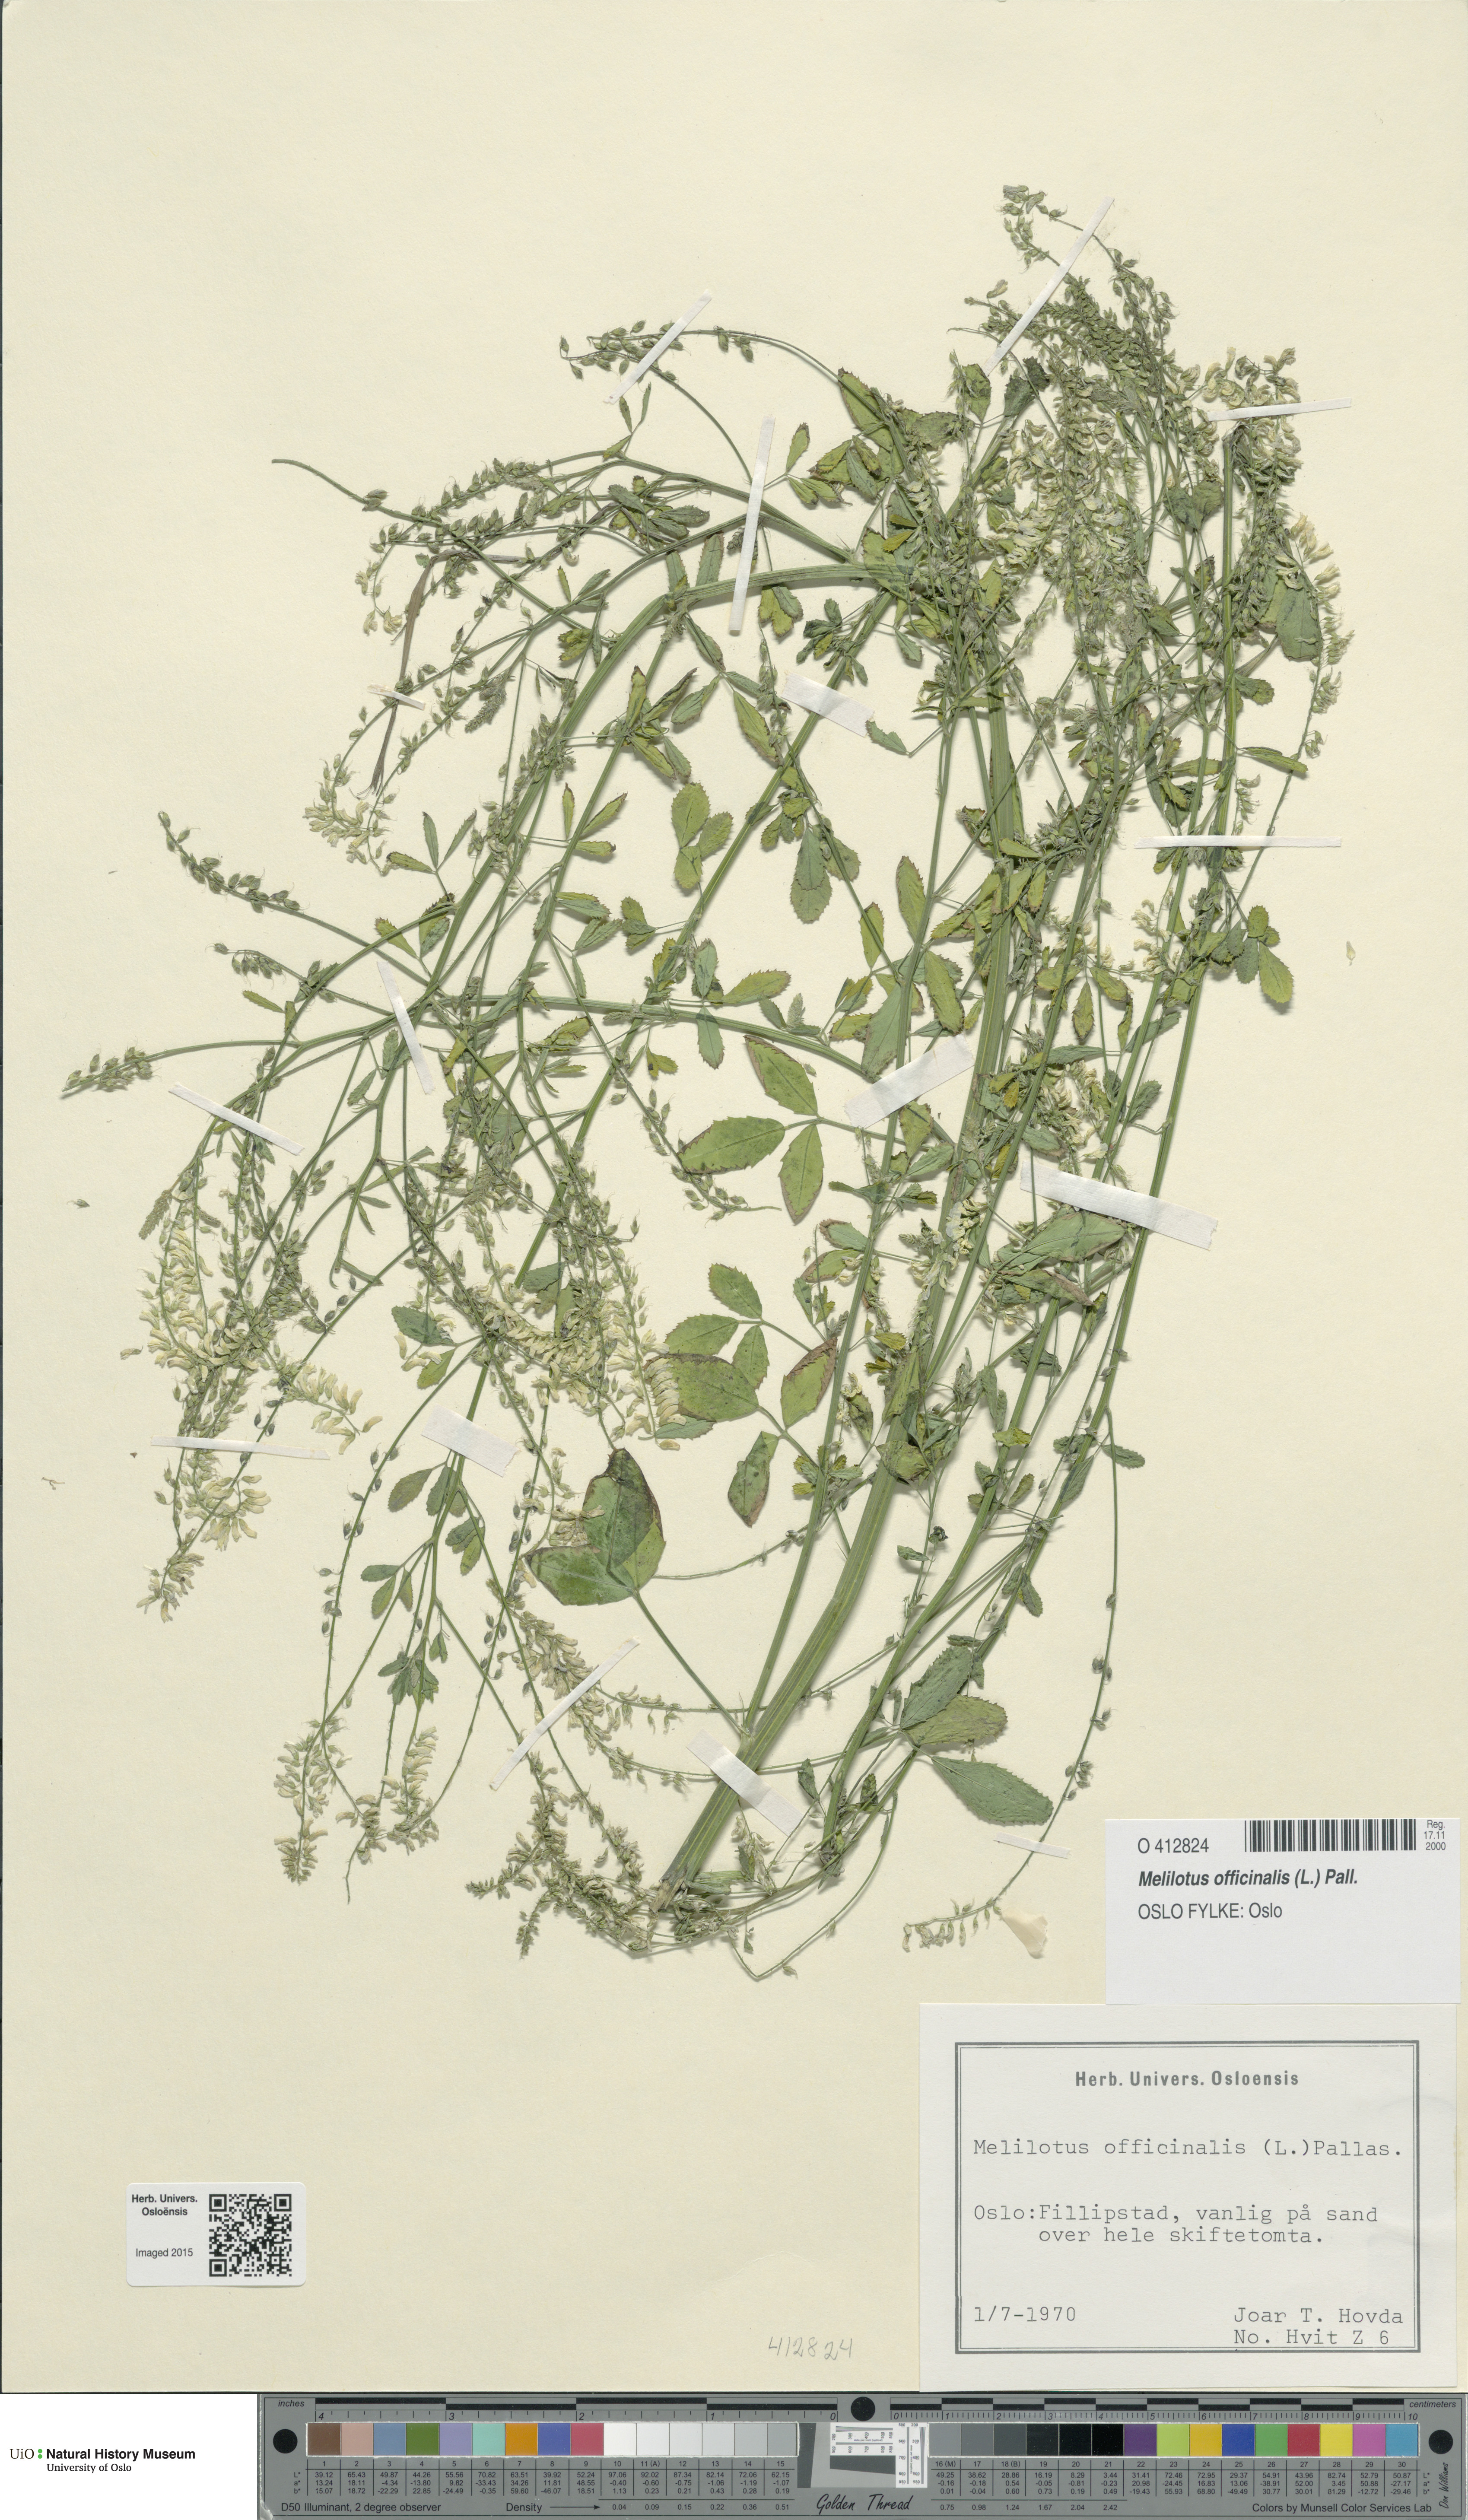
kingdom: Plantae
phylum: Tracheophyta
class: Magnoliopsida
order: Fabales
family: Fabaceae
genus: Melilotus
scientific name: Melilotus officinalis
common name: Sweetclover
